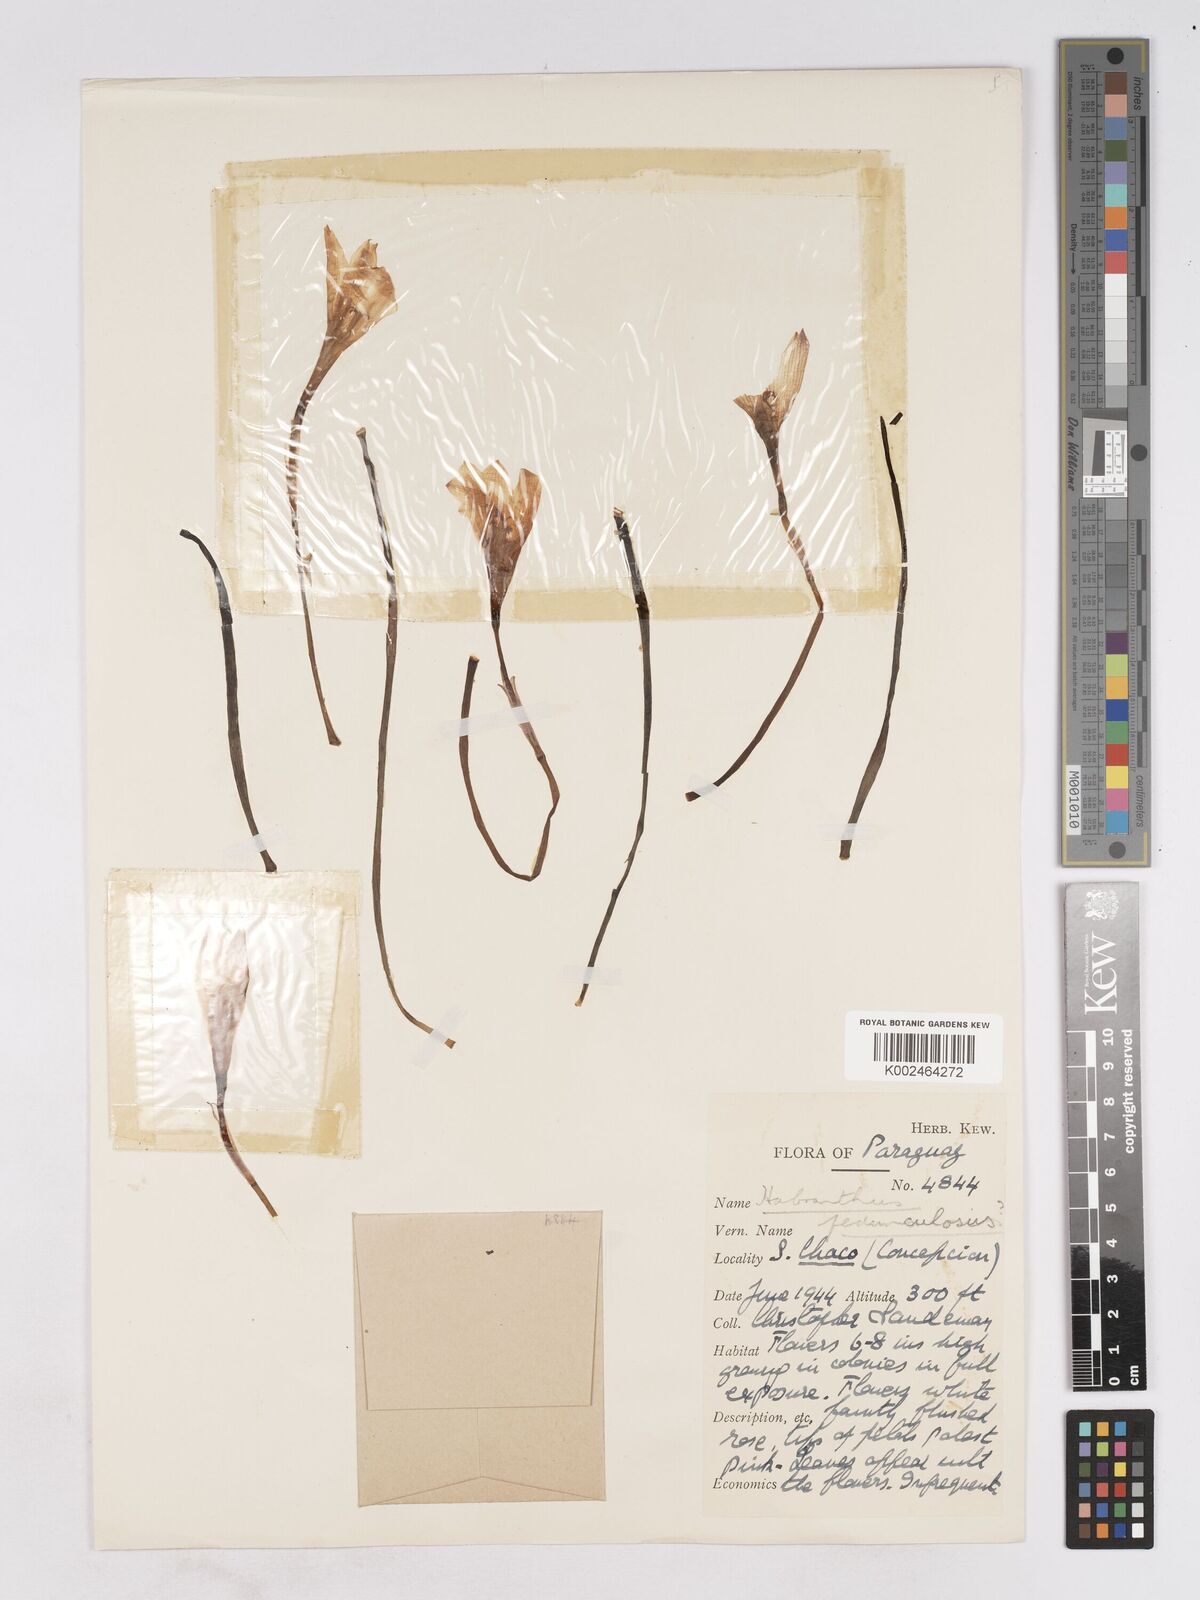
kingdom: Plantae
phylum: Tracheophyta
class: Liliopsida
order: Asparagales
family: Amaryllidaceae
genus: Zephyranthes
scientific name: Zephyranthes pedunculosa
